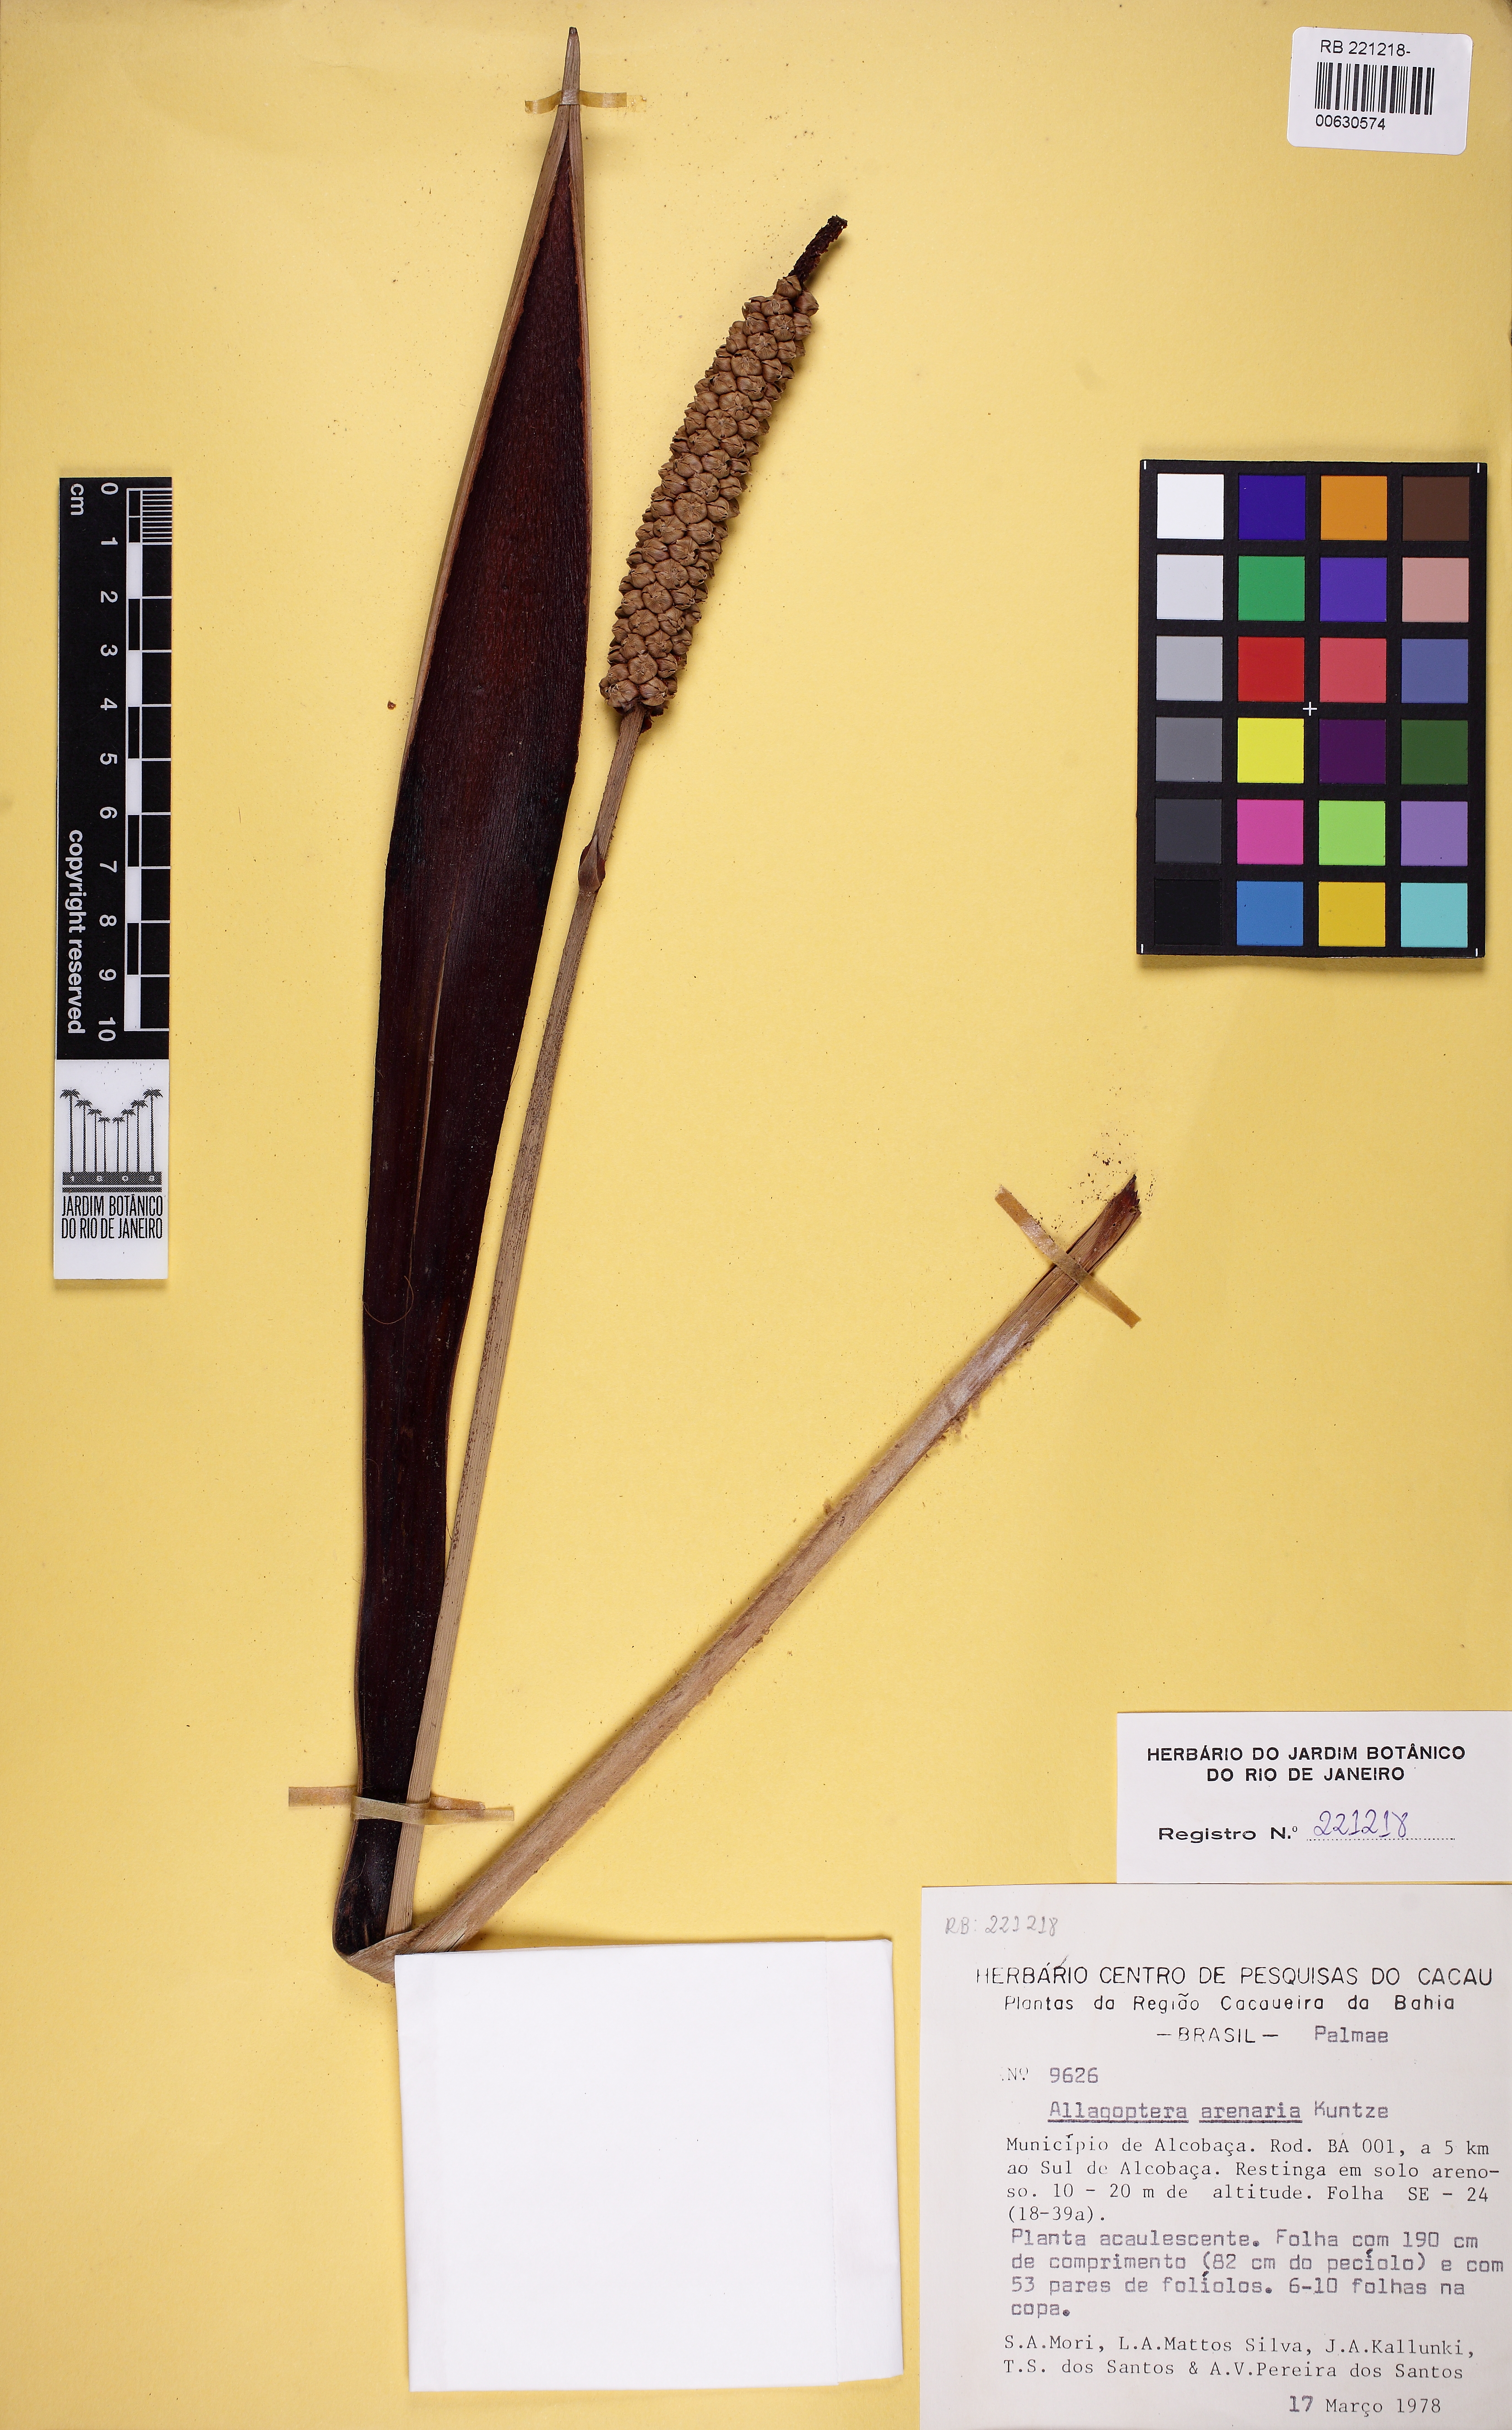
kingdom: Plantae
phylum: Tracheophyta
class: Liliopsida
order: Arecales
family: Arecaceae
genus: Allagoptera
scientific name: Allagoptera arenaria
